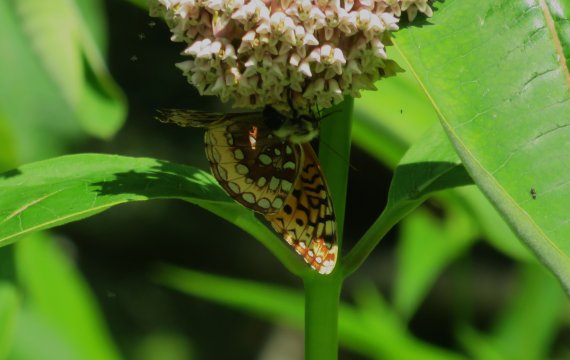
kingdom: Animalia
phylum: Arthropoda
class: Insecta
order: Lepidoptera
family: Nymphalidae
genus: Speyeria
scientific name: Speyeria cybele
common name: Great Spangled Fritillary
